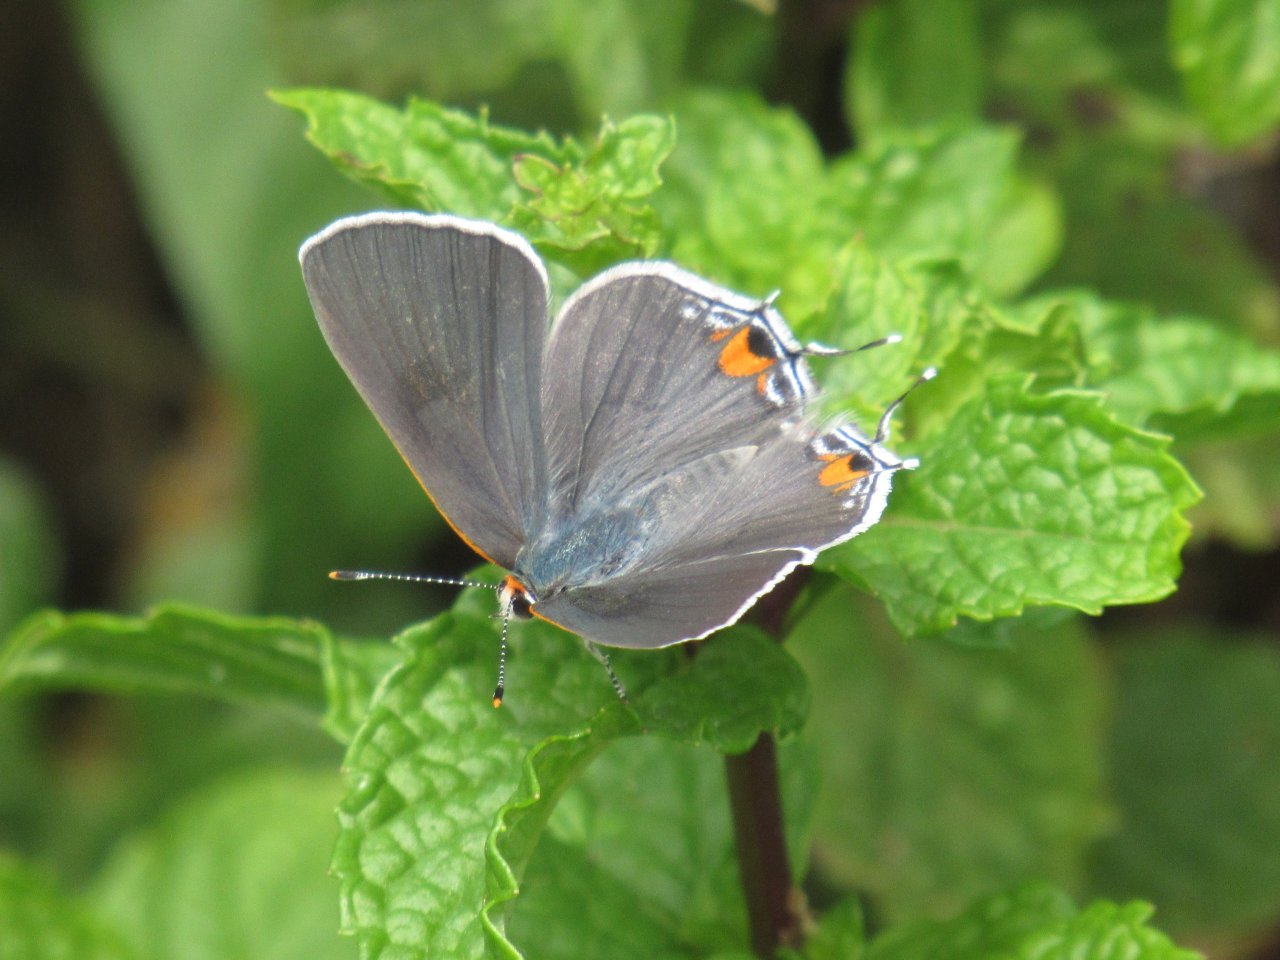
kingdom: Animalia
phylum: Arthropoda
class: Insecta
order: Lepidoptera
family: Lycaenidae
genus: Strymon
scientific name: Strymon melinus
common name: Gray Hairstreak
